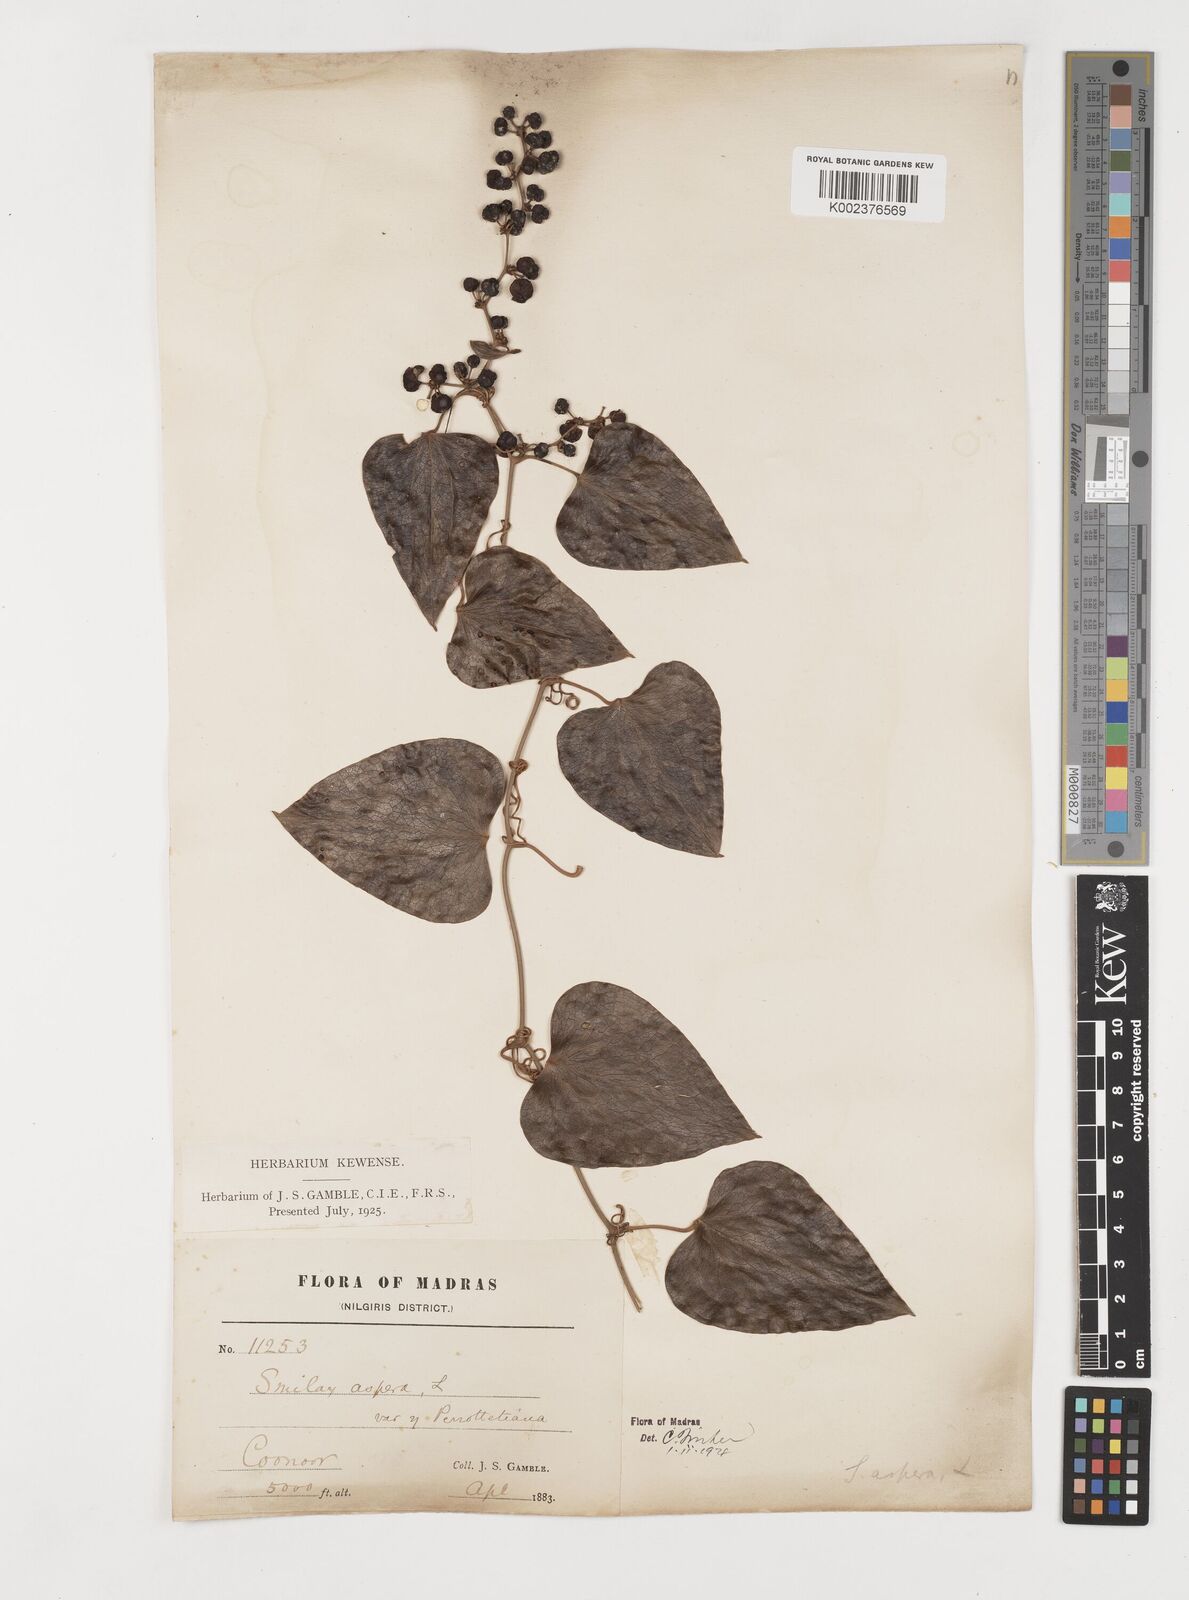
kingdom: Plantae
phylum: Tracheophyta
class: Liliopsida
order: Liliales
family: Smilacaceae
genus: Smilax
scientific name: Smilax aspera
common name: Common smilax
